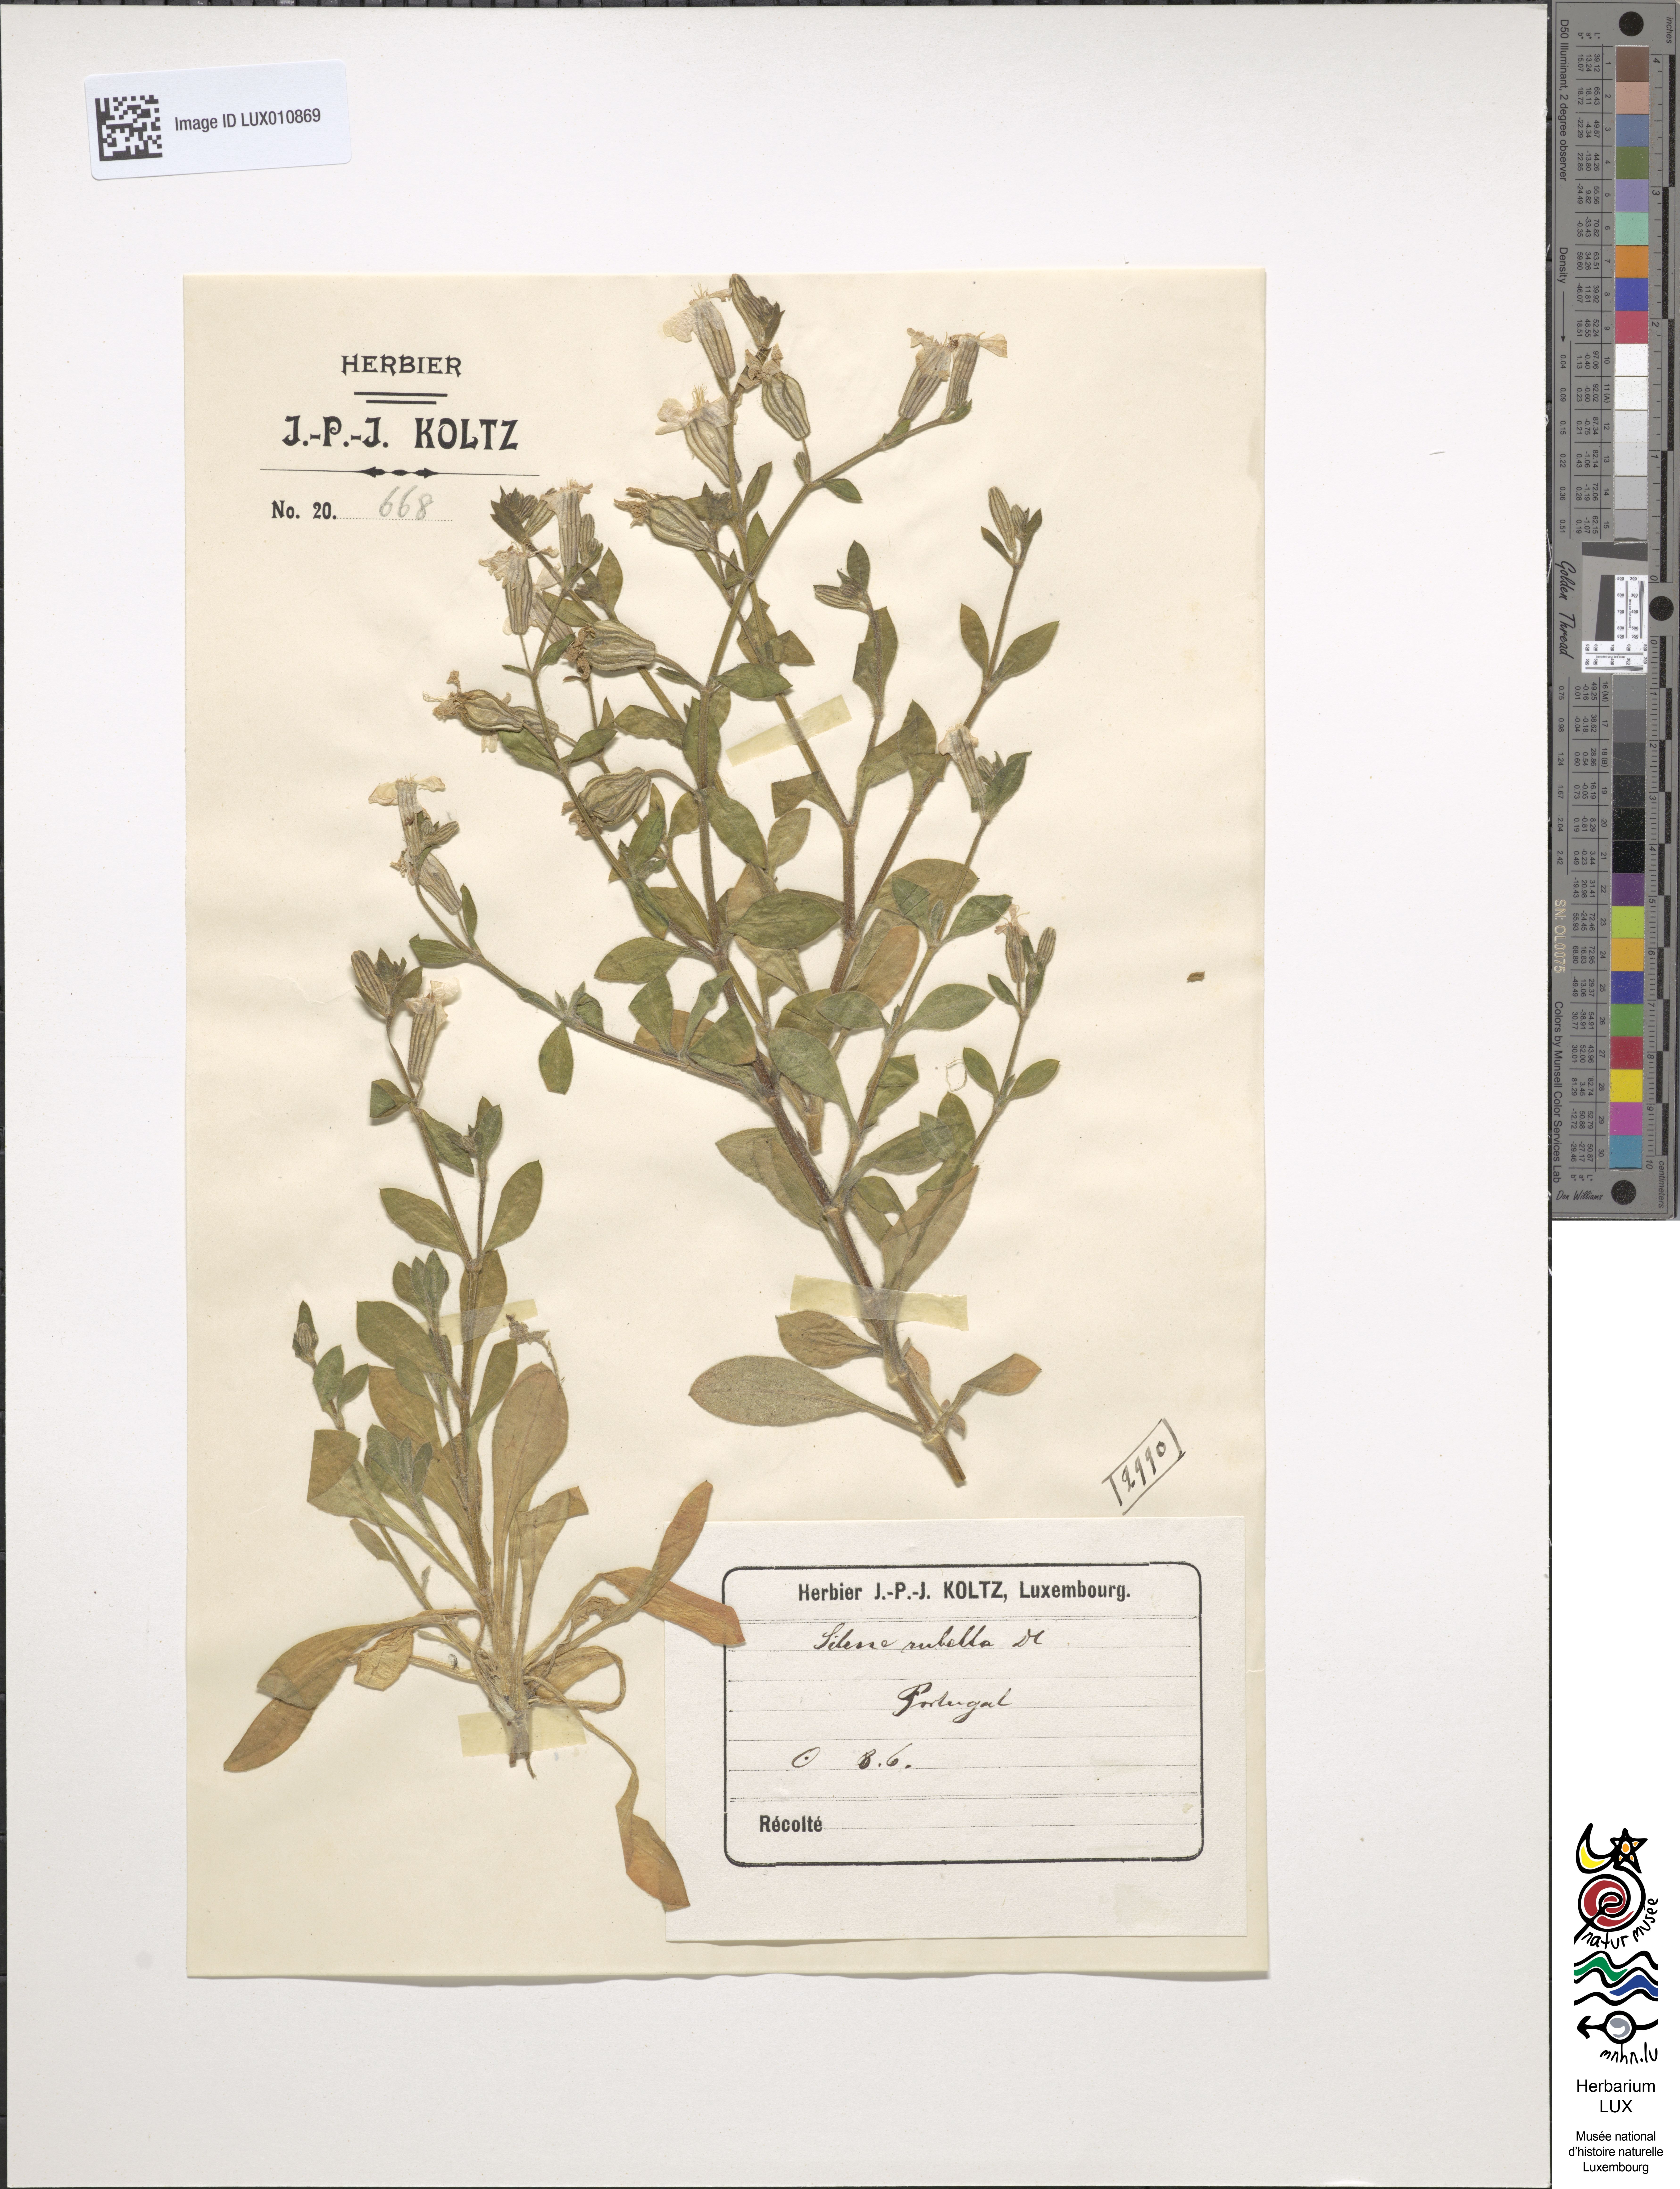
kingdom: Plantae
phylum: Tracheophyta
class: Magnoliopsida
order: Caryophyllales
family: Caryophyllaceae
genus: Silene
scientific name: Silene rubella
